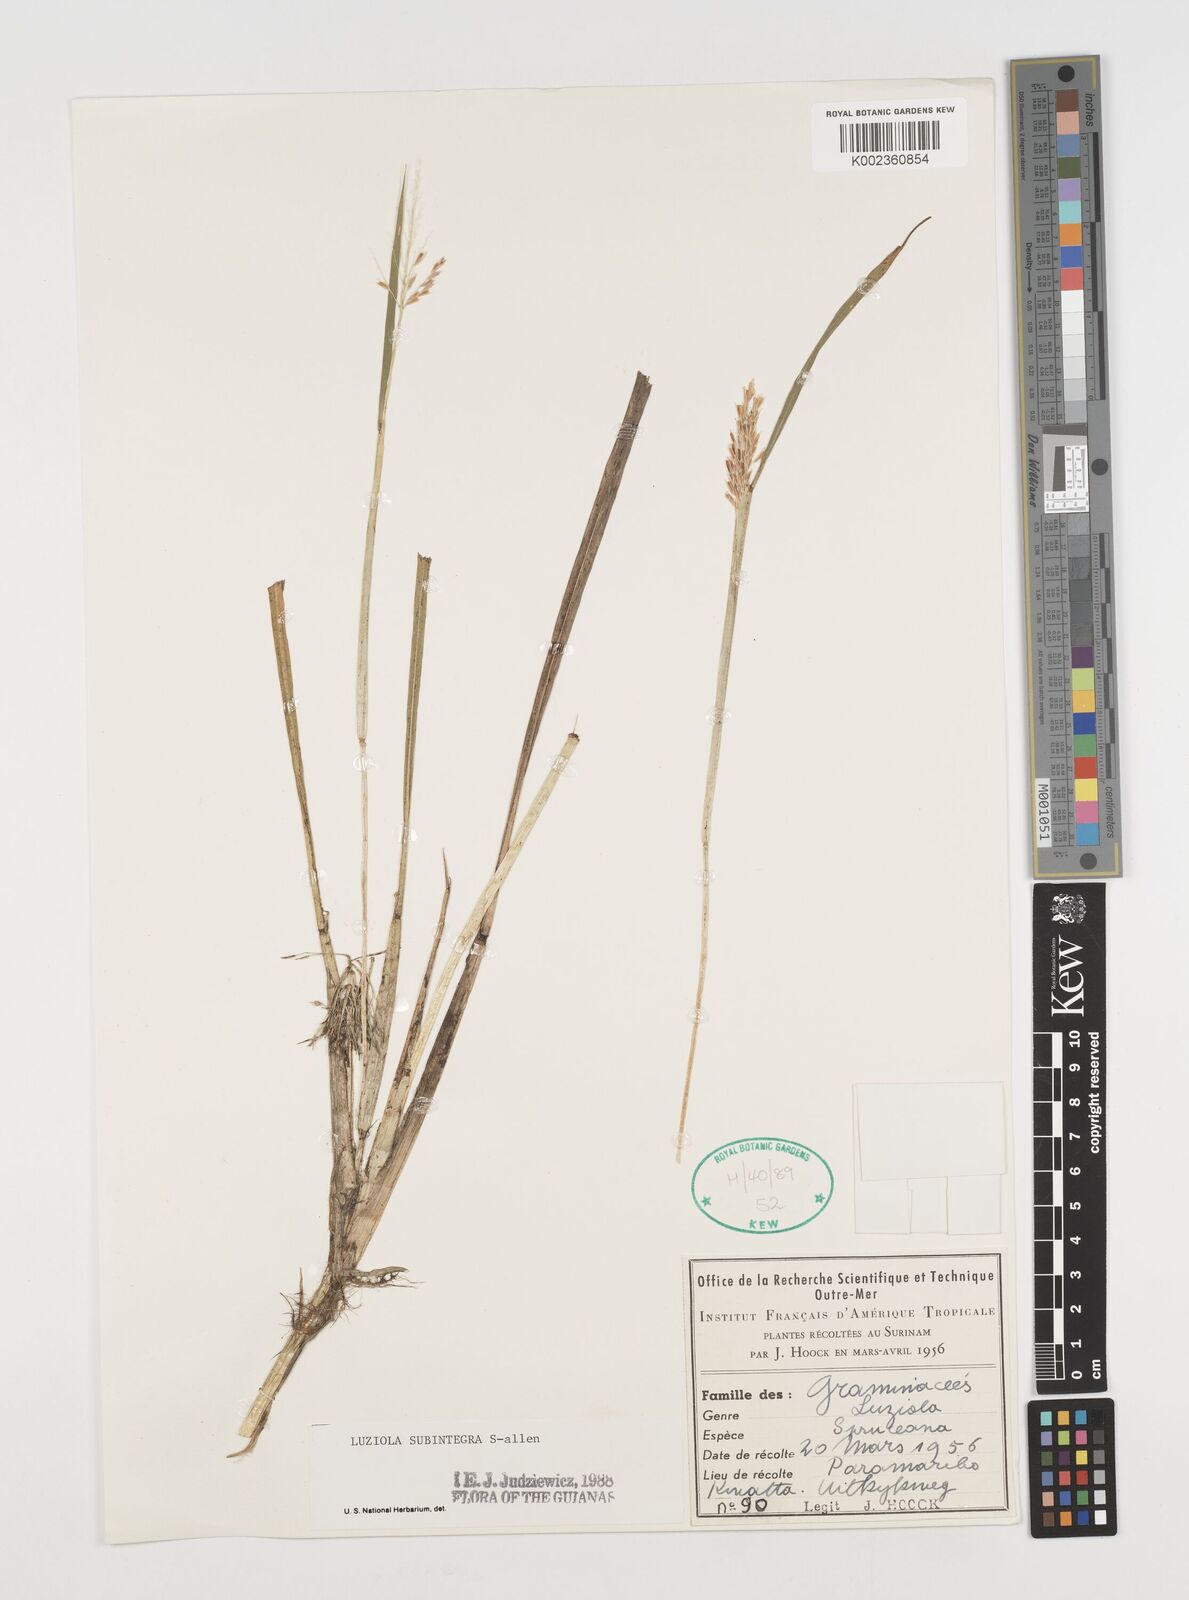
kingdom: Plantae
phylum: Tracheophyta
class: Liliopsida
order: Poales
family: Poaceae
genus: Luziola
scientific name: Luziola subintegra
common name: Large watergrass
